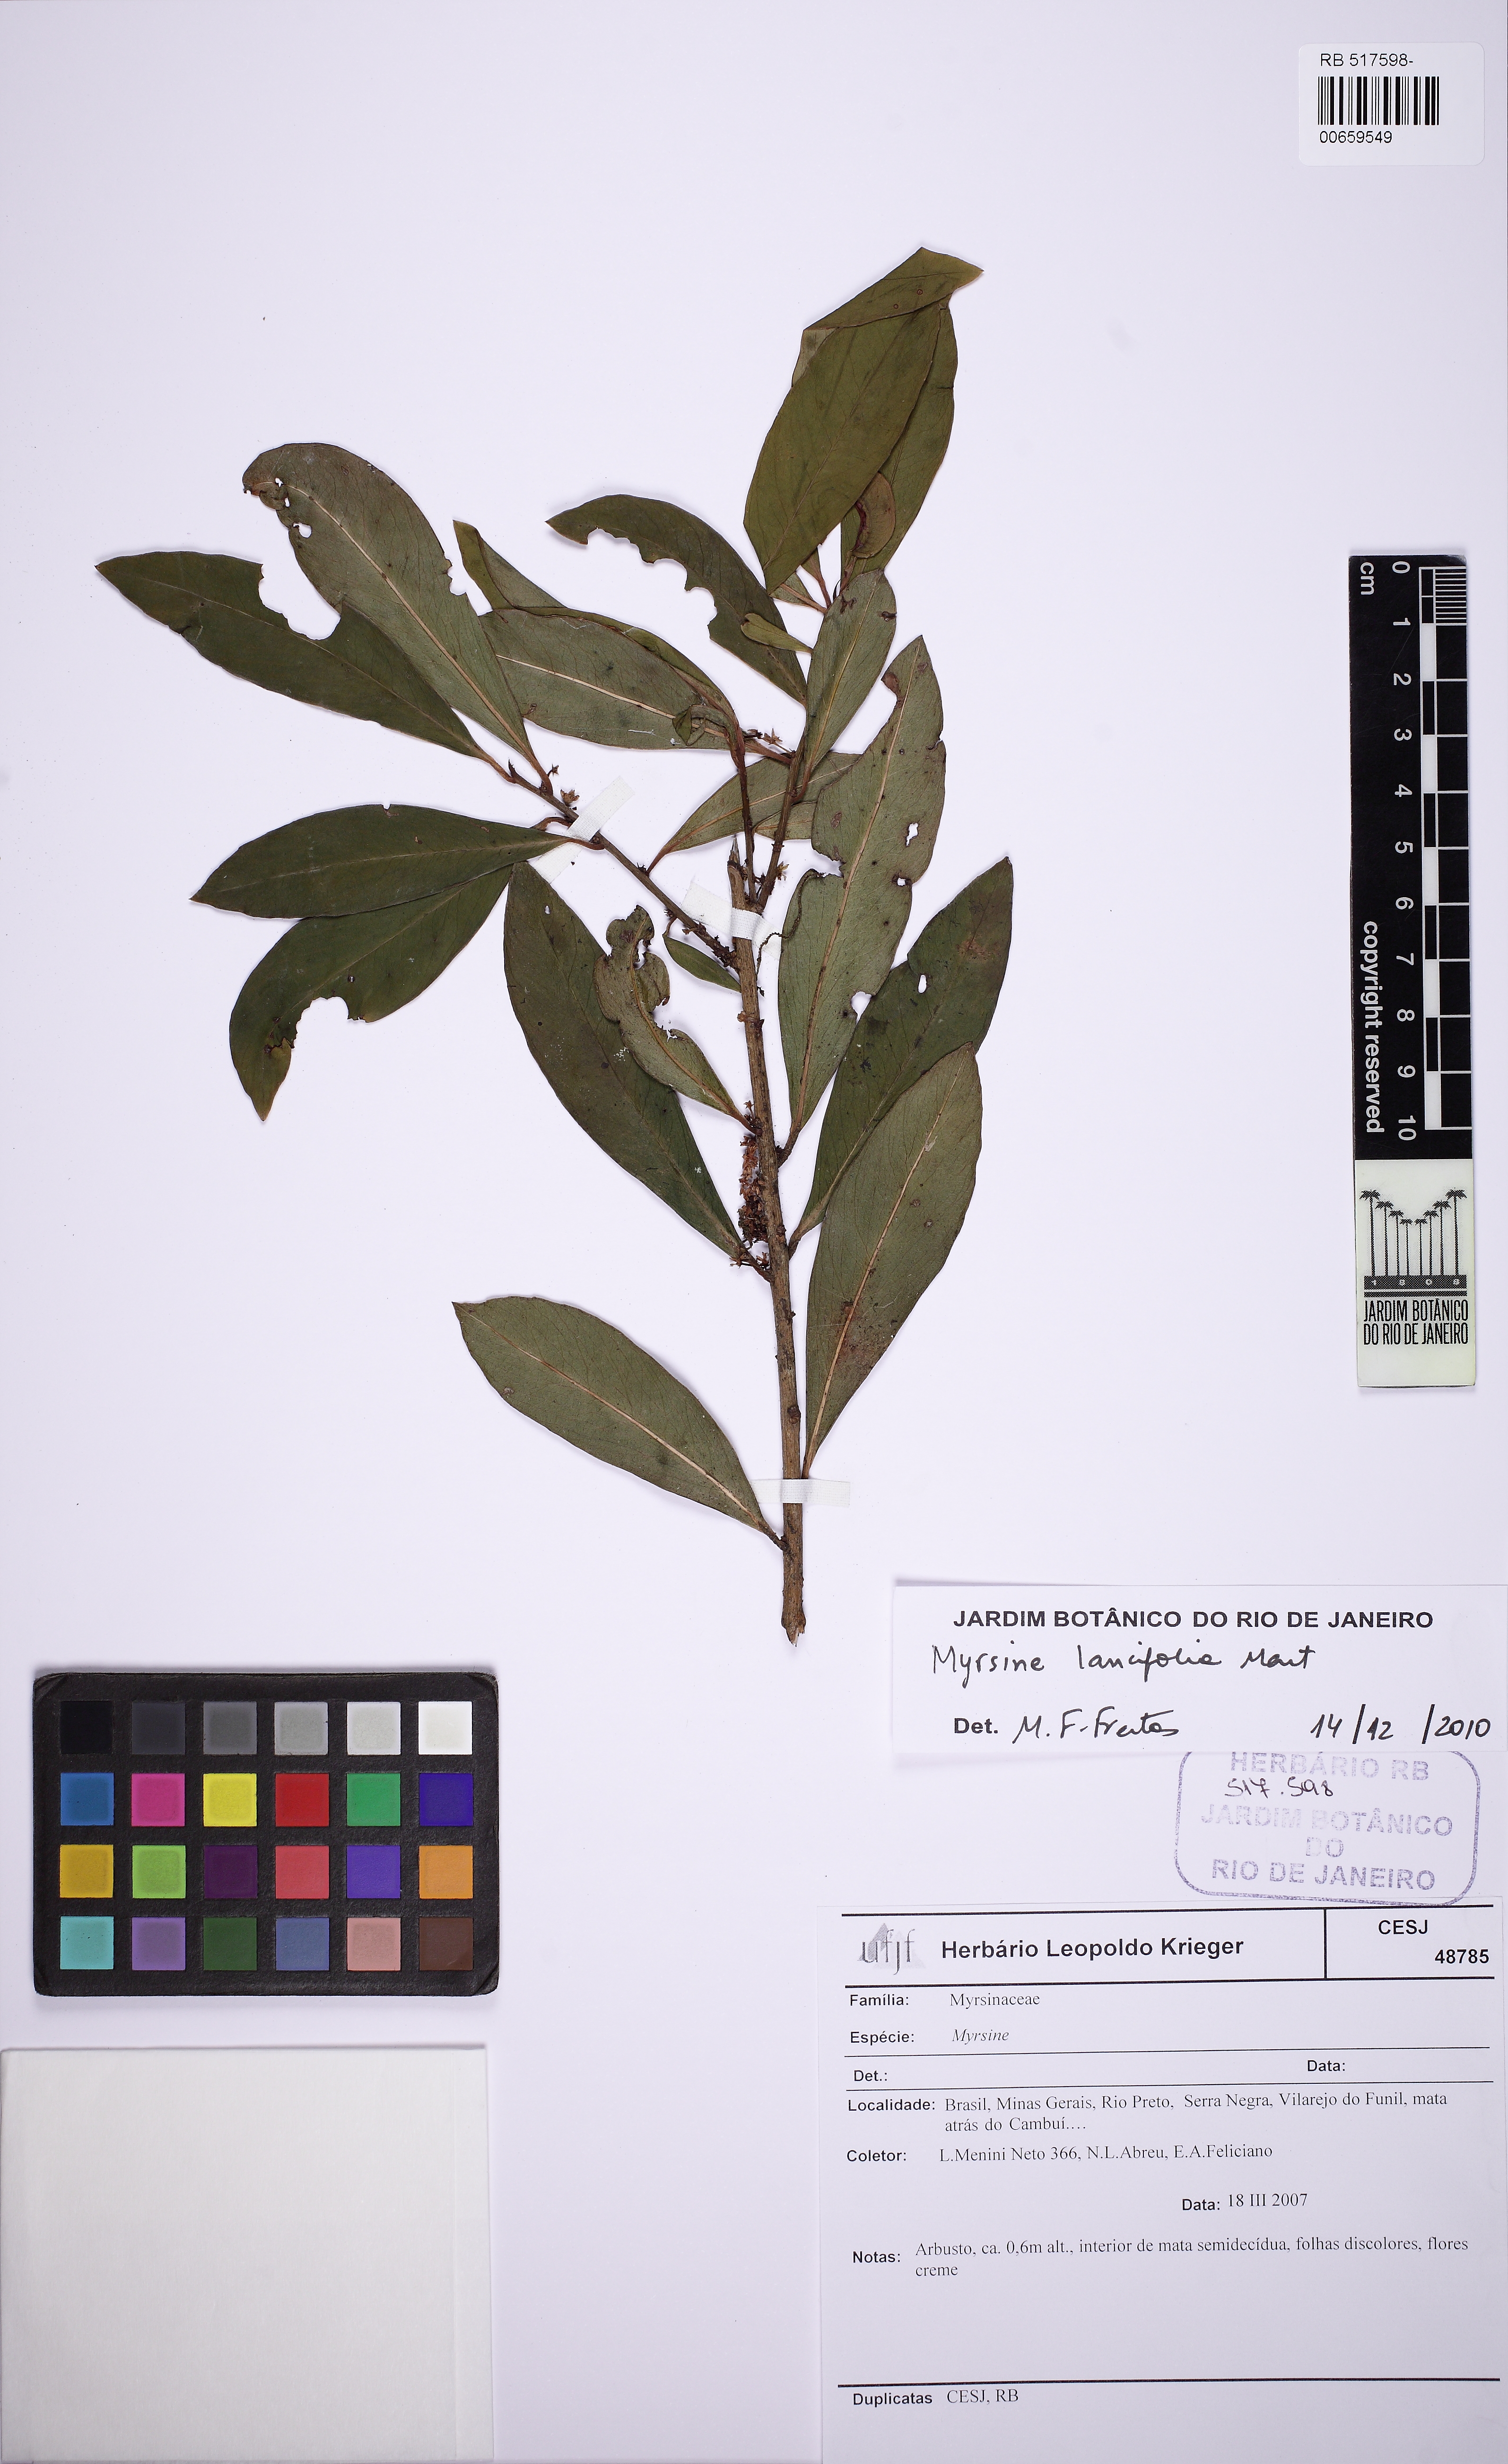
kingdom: Plantae
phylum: Tracheophyta
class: Magnoliopsida
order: Ericales
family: Primulaceae
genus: Myrsine
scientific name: Myrsine lancifolia
